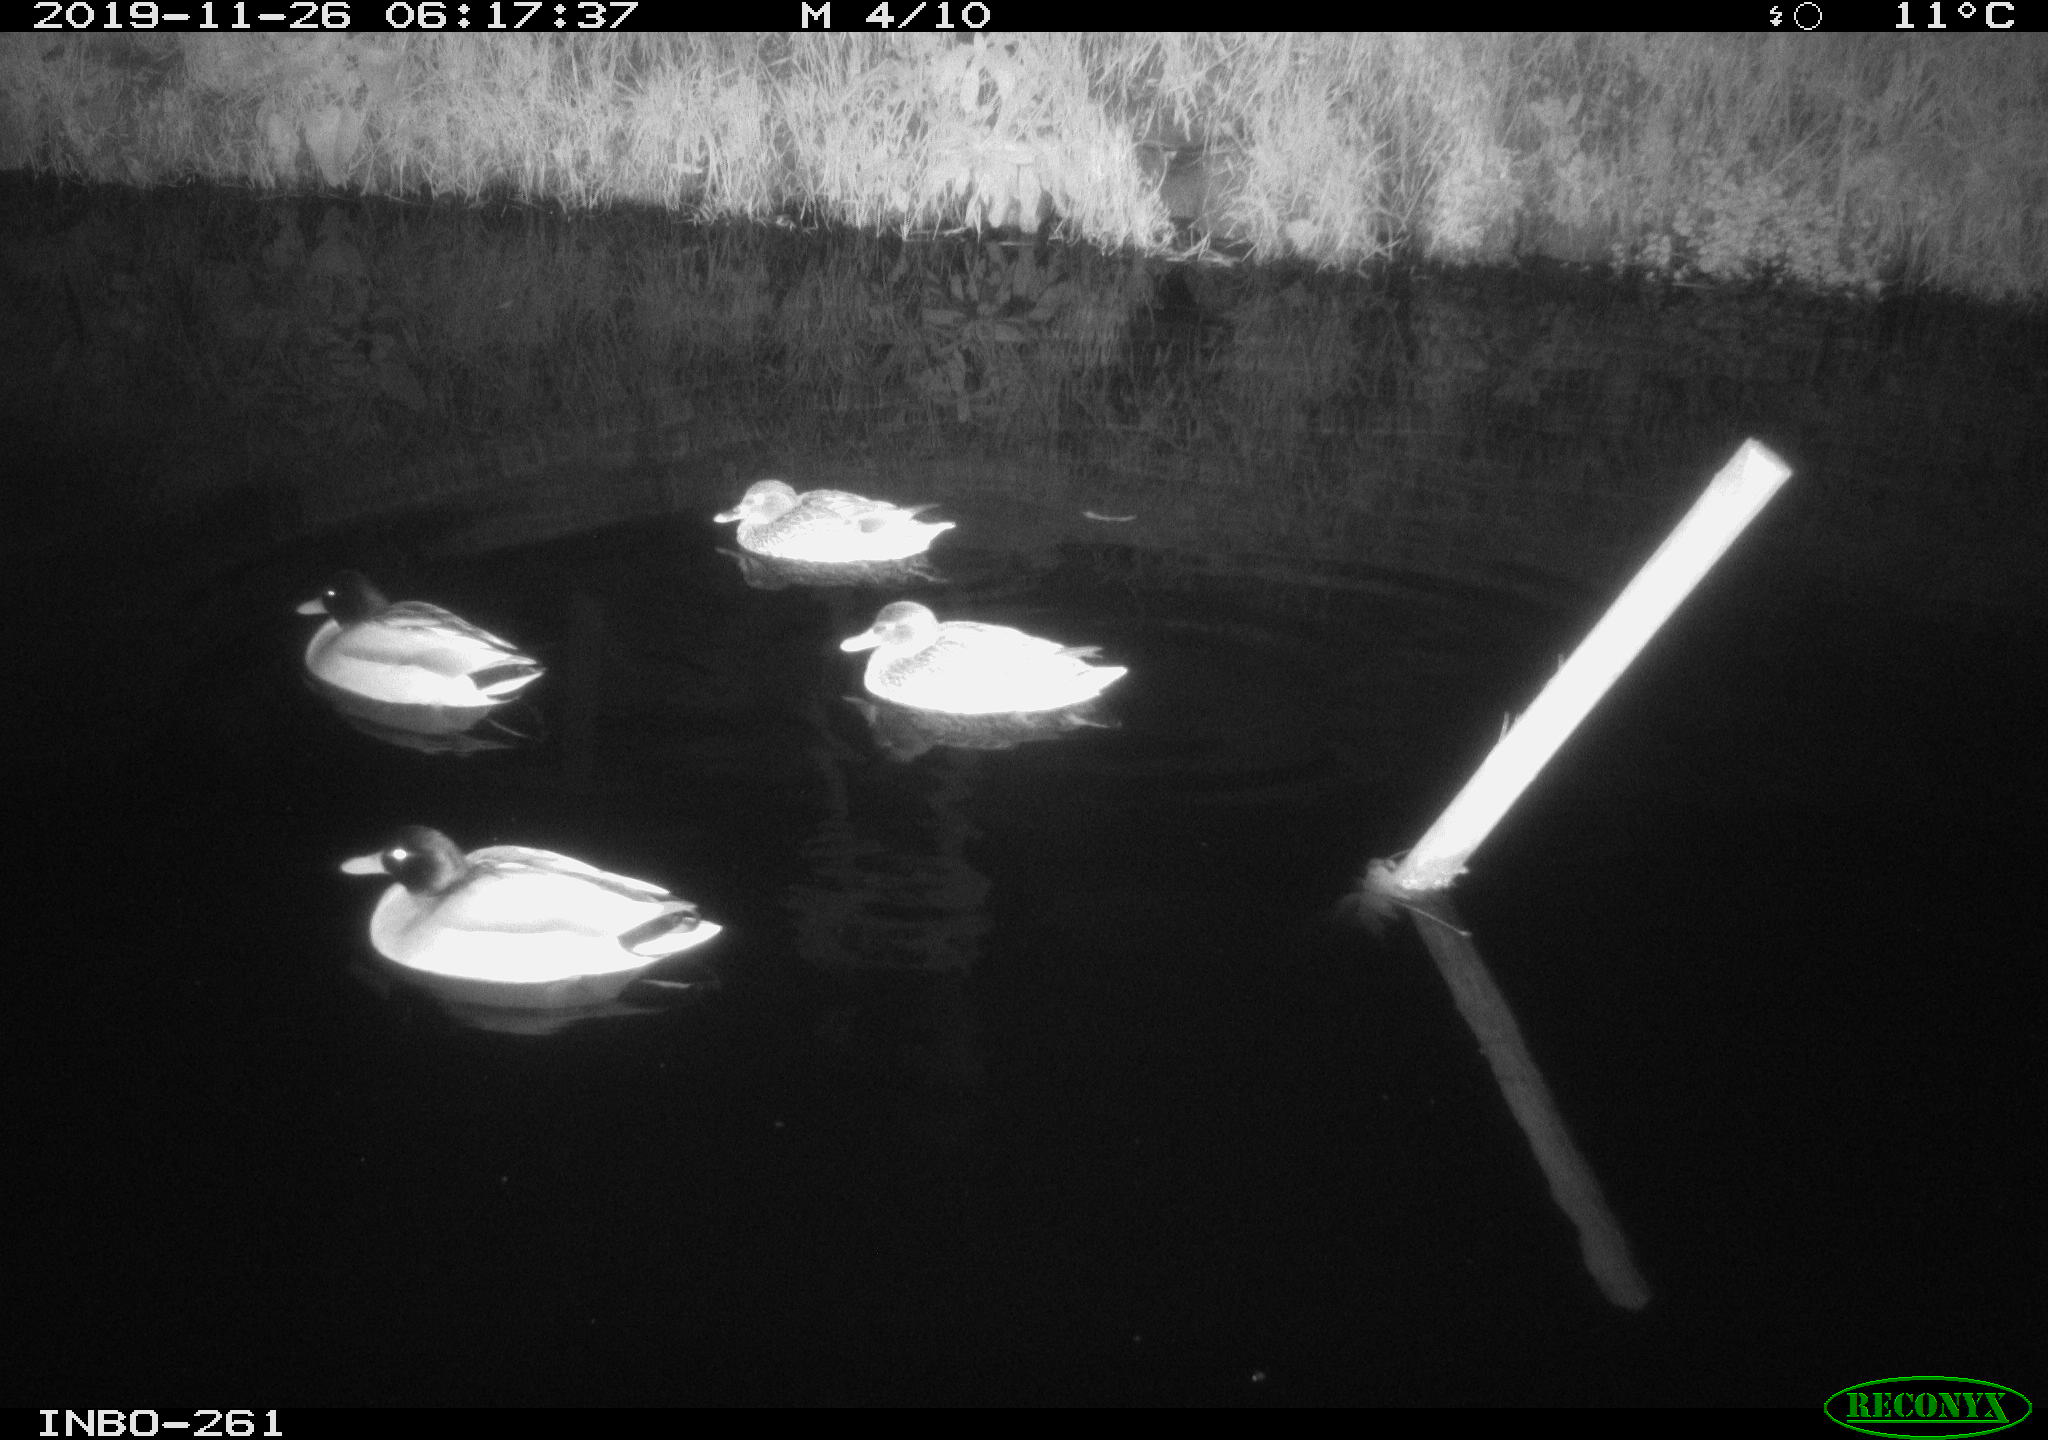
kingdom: Animalia
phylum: Chordata
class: Aves
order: Anseriformes
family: Anatidae
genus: Anas
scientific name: Anas platyrhynchos
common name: Mallard
